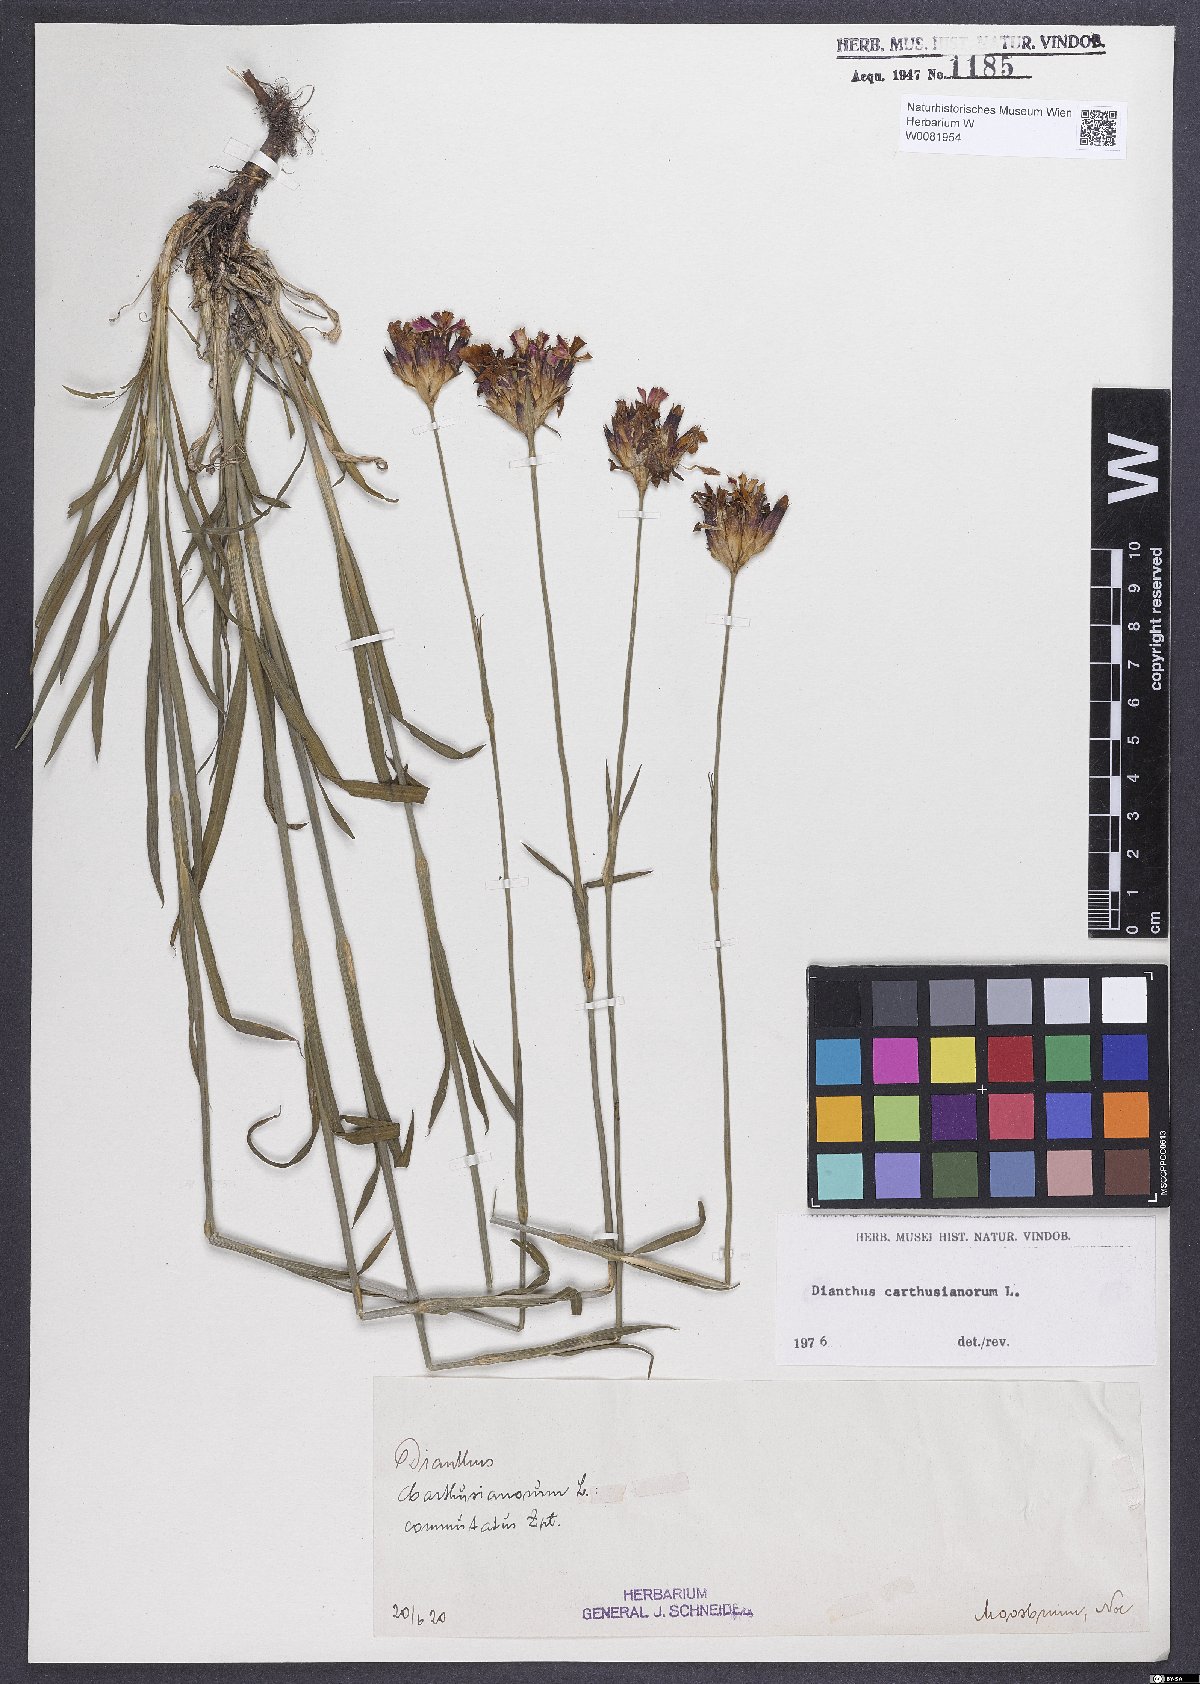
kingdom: Plantae
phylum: Tracheophyta
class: Magnoliopsida
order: Caryophyllales
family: Caryophyllaceae
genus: Dianthus
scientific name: Dianthus carthusianorum
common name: Carthusian pink
